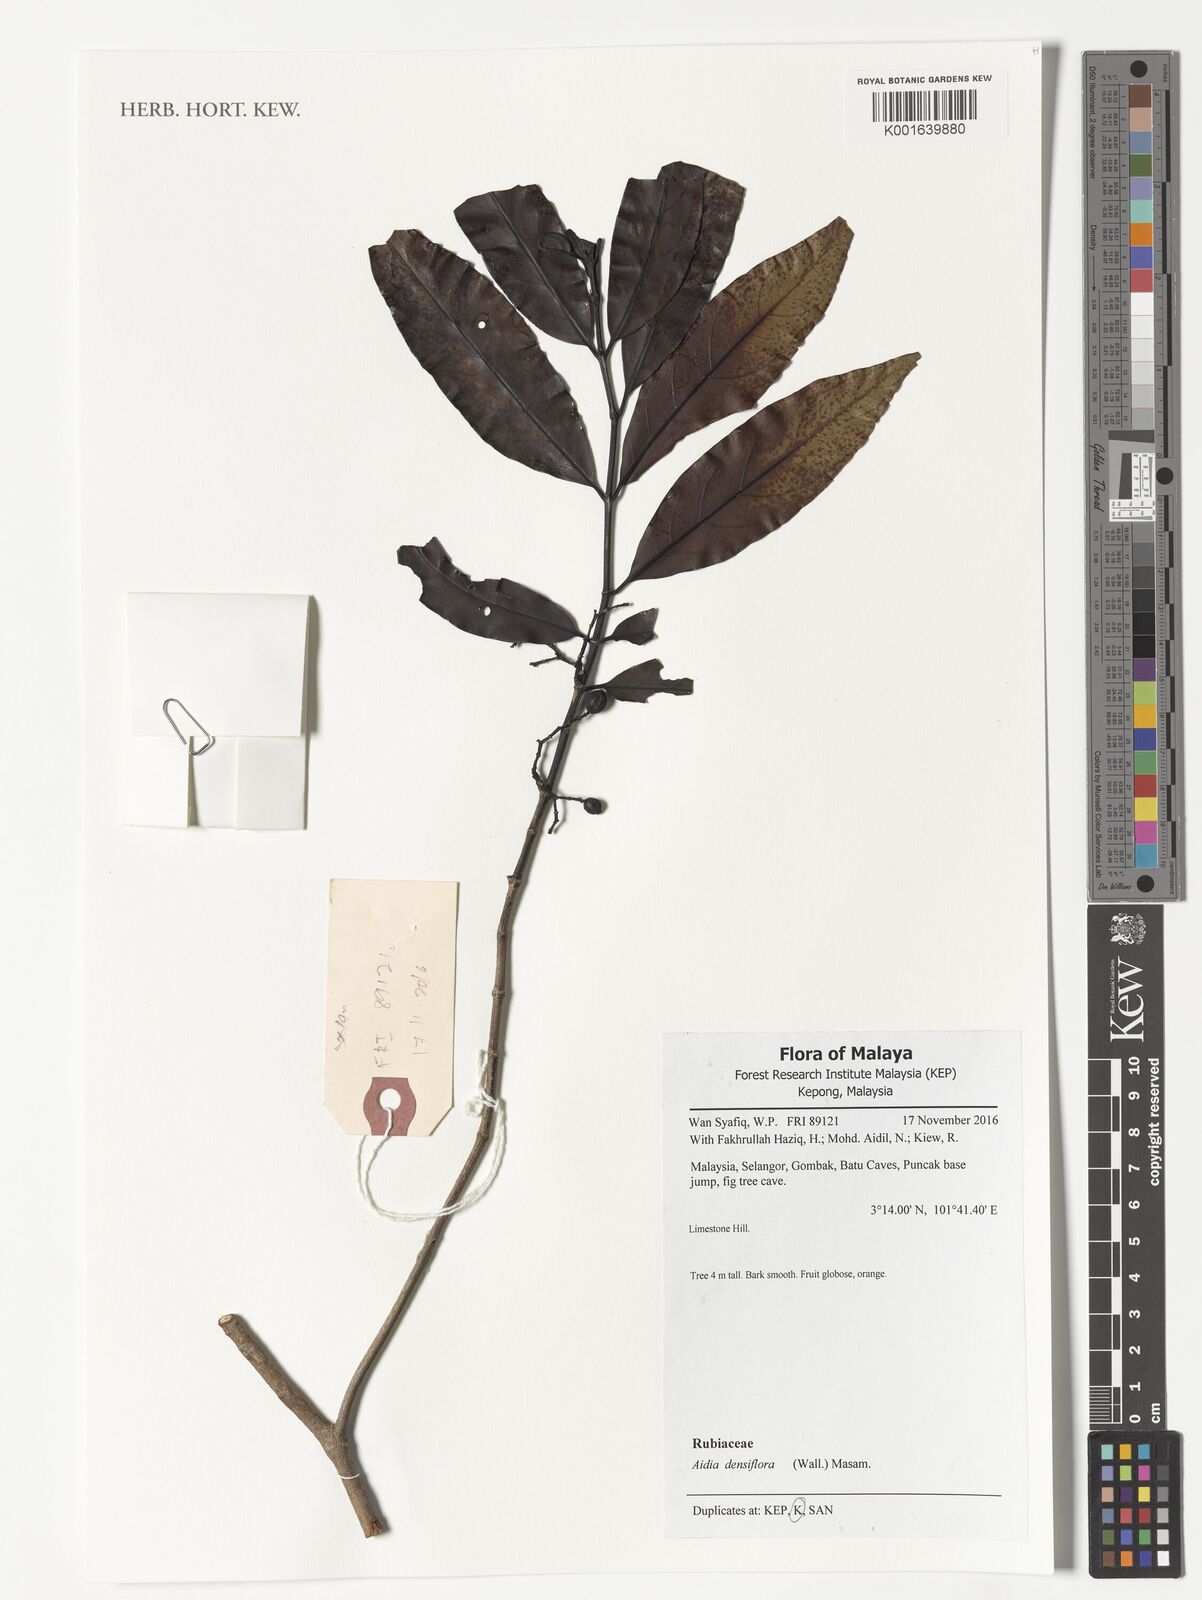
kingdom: Plantae
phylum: Tracheophyta
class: Magnoliopsida
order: Gentianales
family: Rubiaceae
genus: Aidia
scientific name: Aidia densiflora
